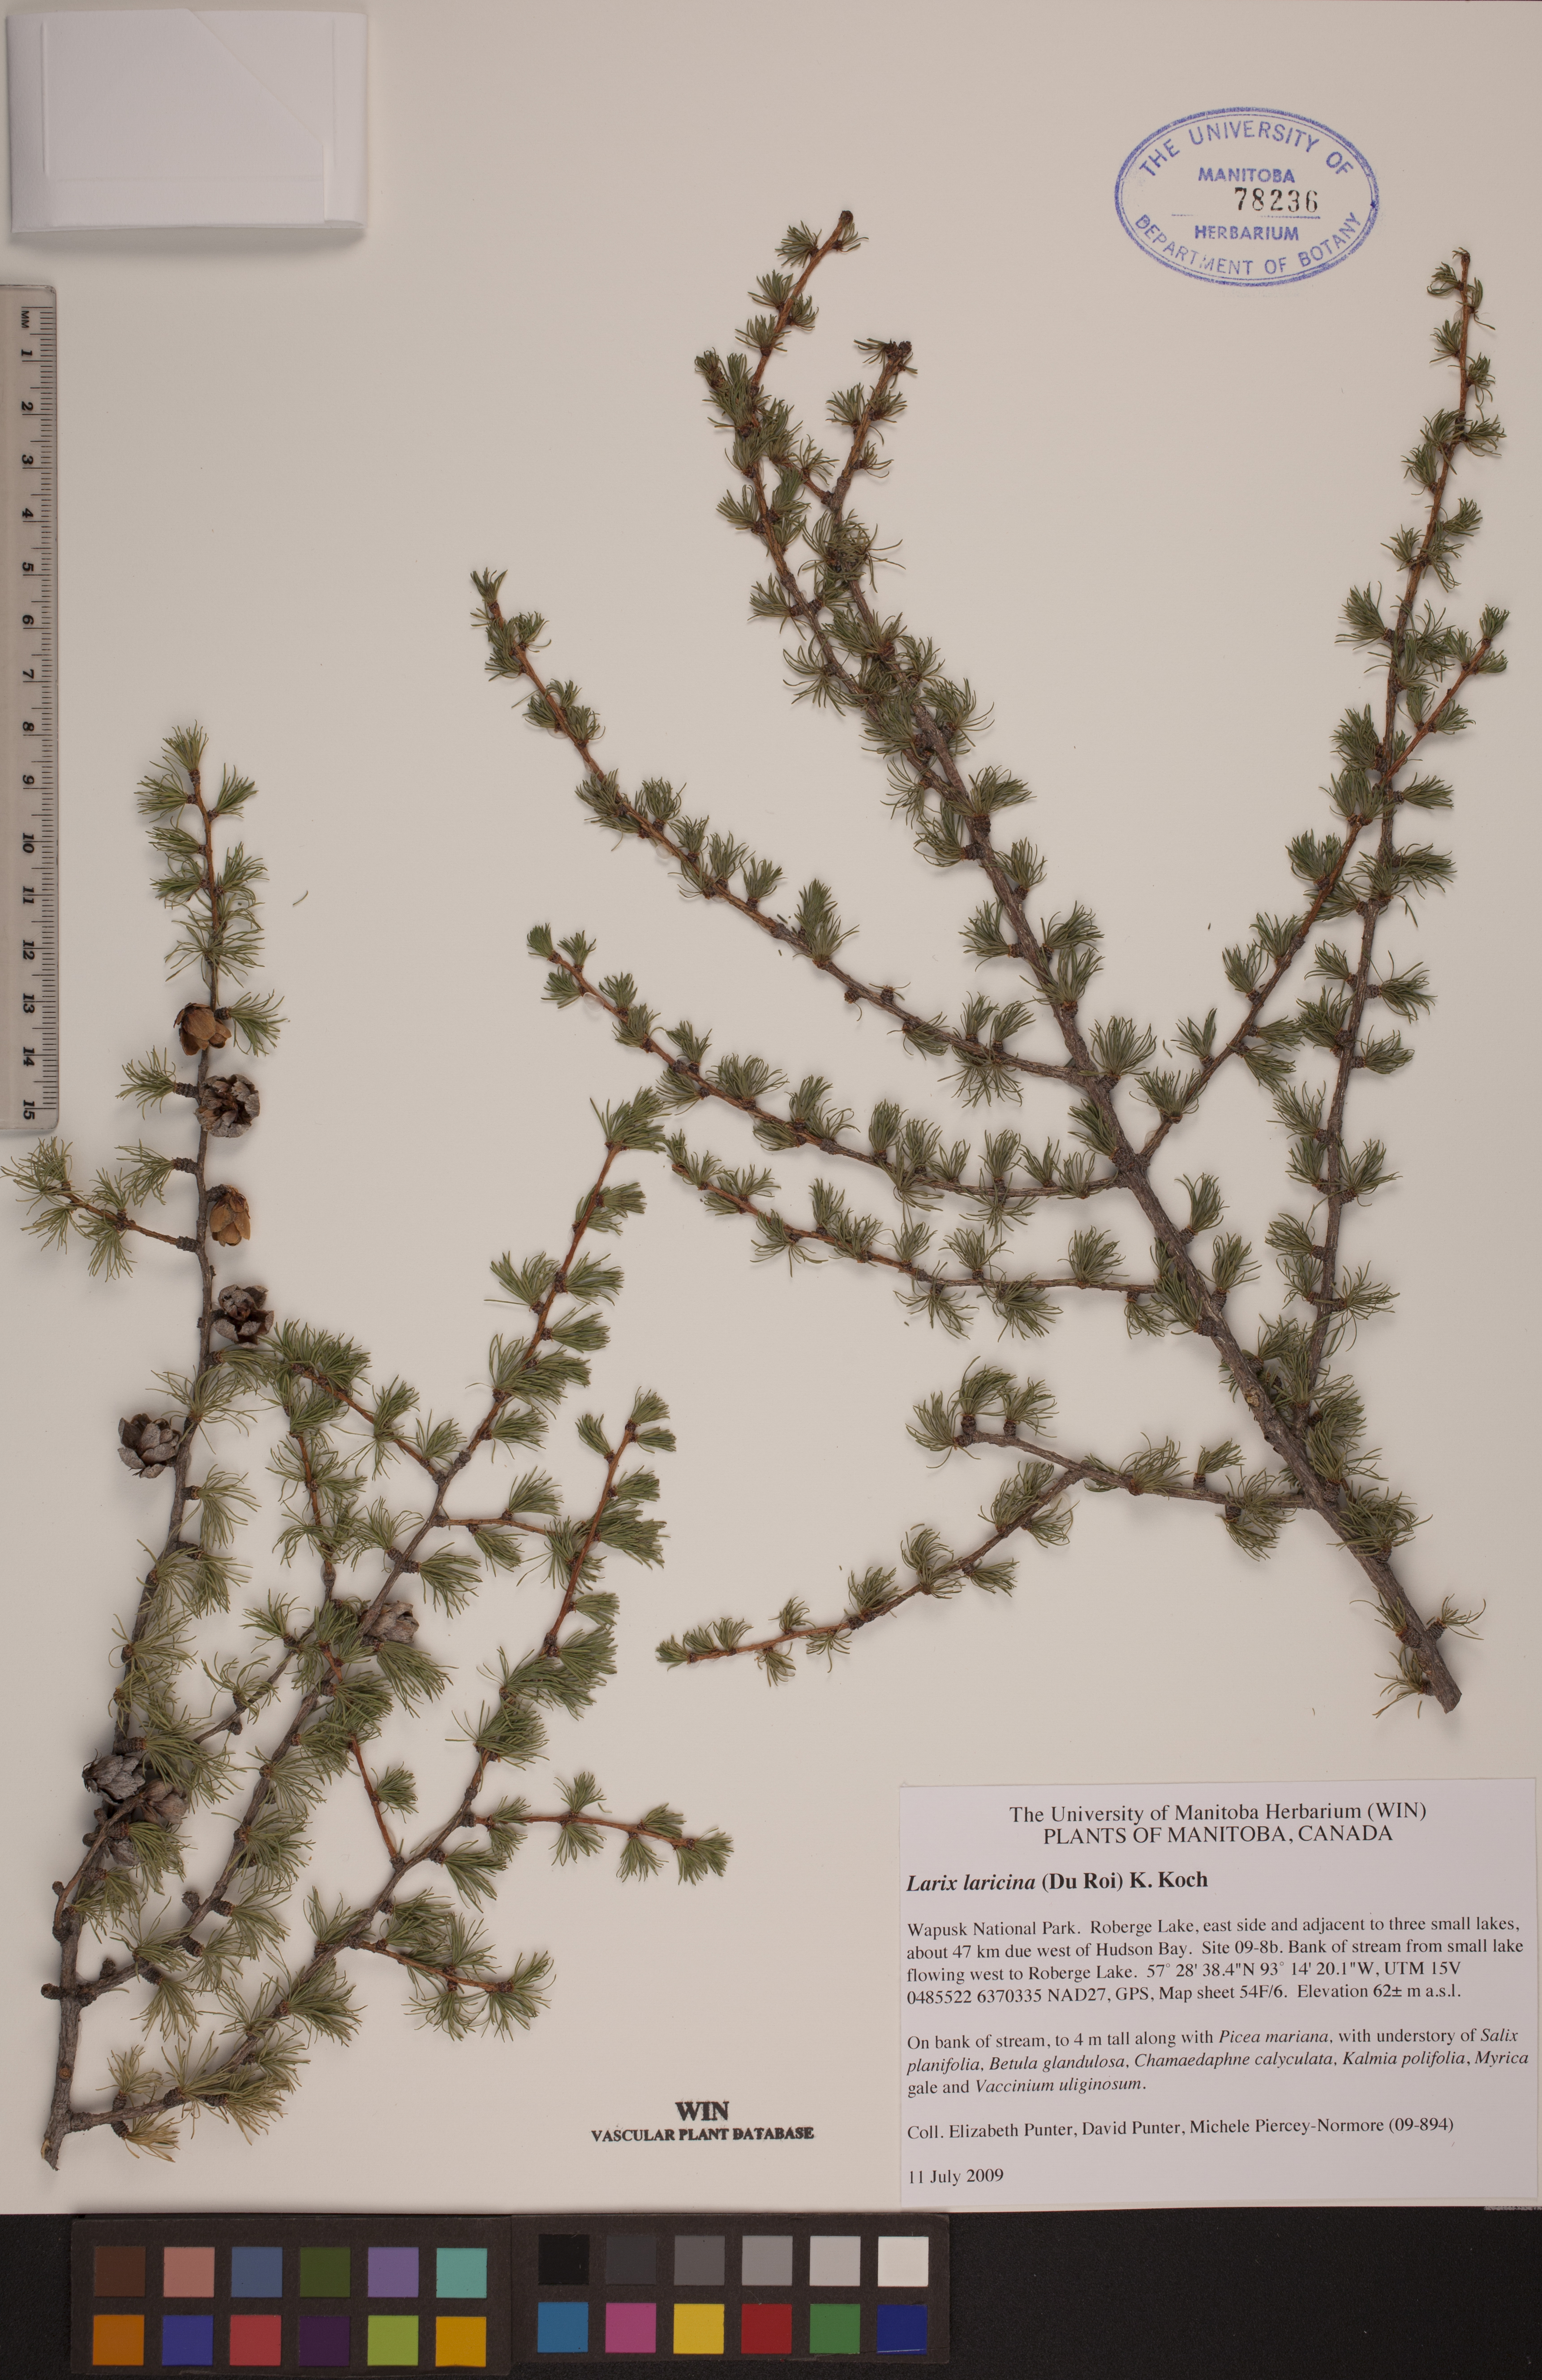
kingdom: Plantae
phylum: Tracheophyta
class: Pinopsida
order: Pinales
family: Pinaceae
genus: Larix
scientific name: Larix laricina
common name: American larch
